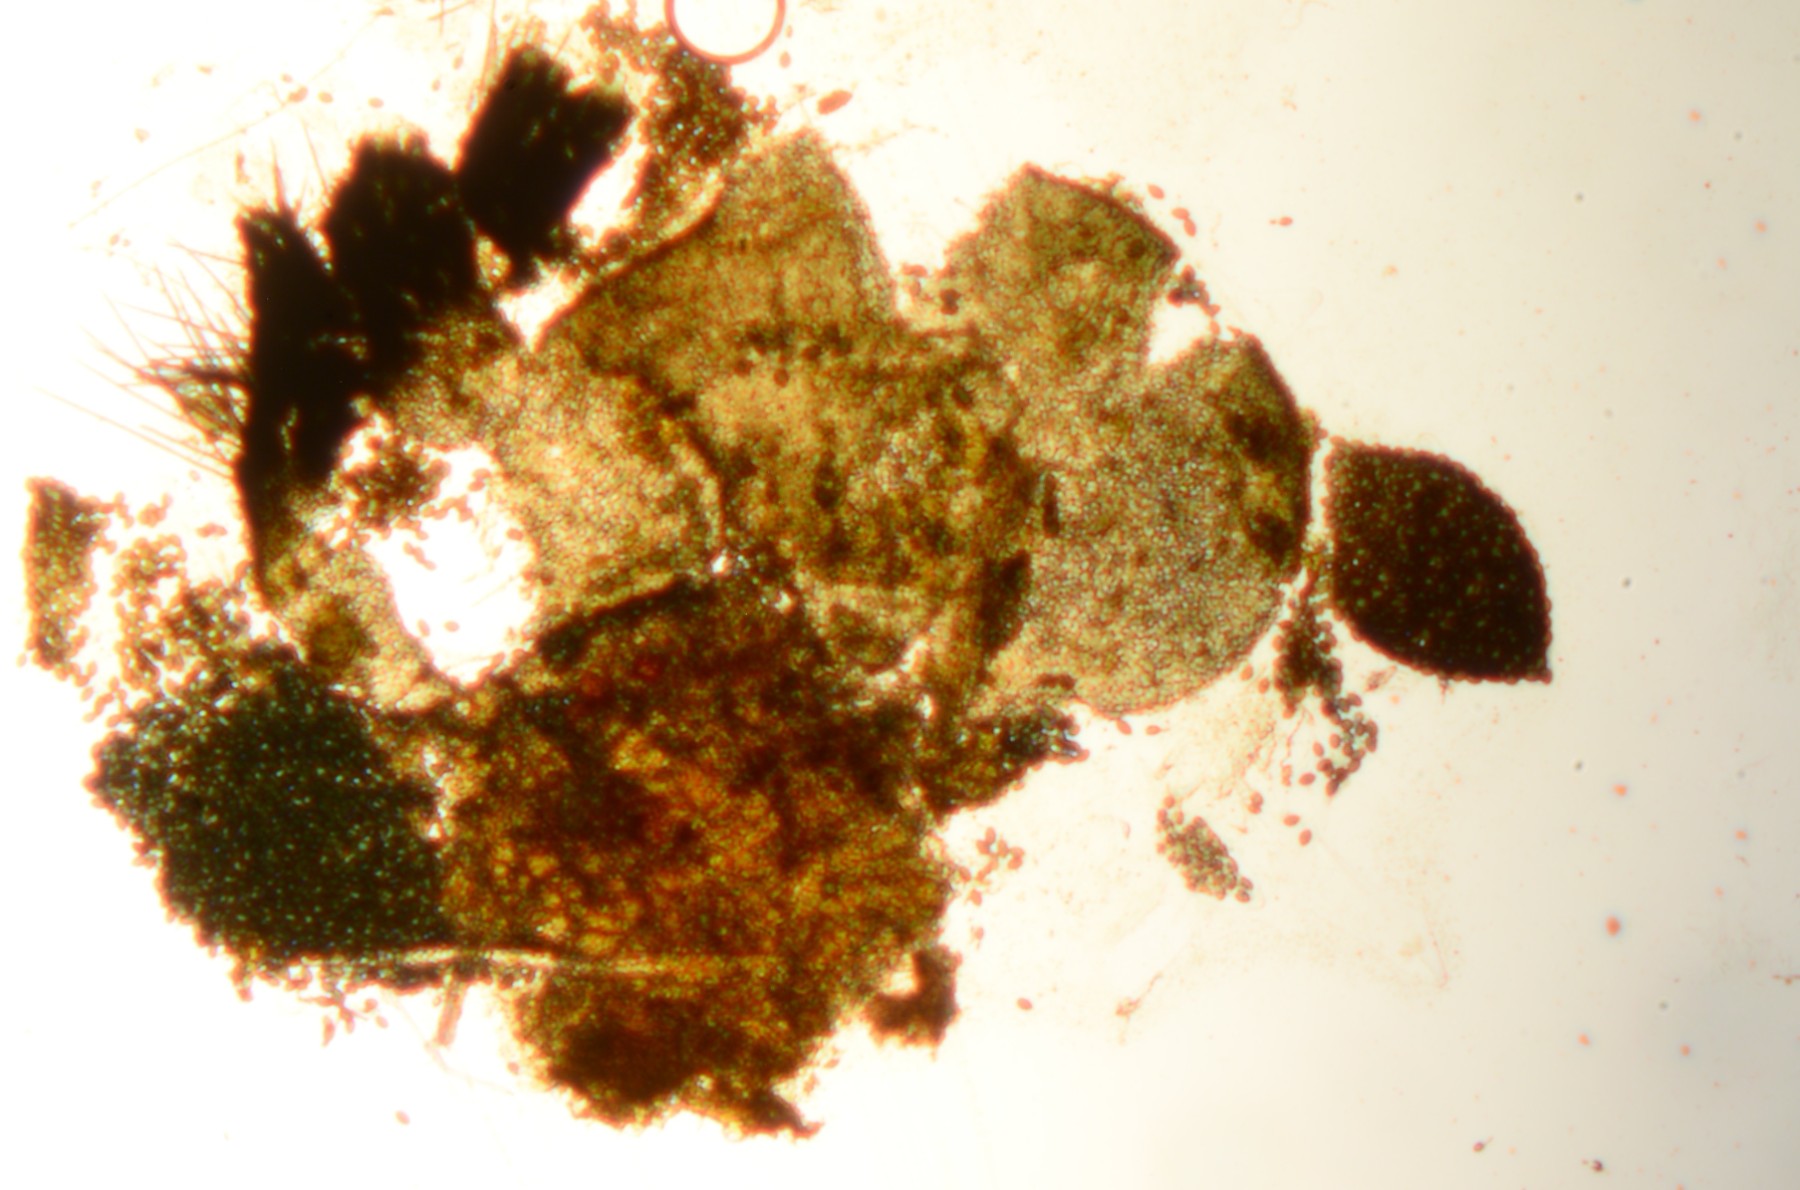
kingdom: Fungi
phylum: Ascomycota
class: Sordariomycetes
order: Sordariales
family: Podosporaceae
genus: Podospora
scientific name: Podospora granulostriata
